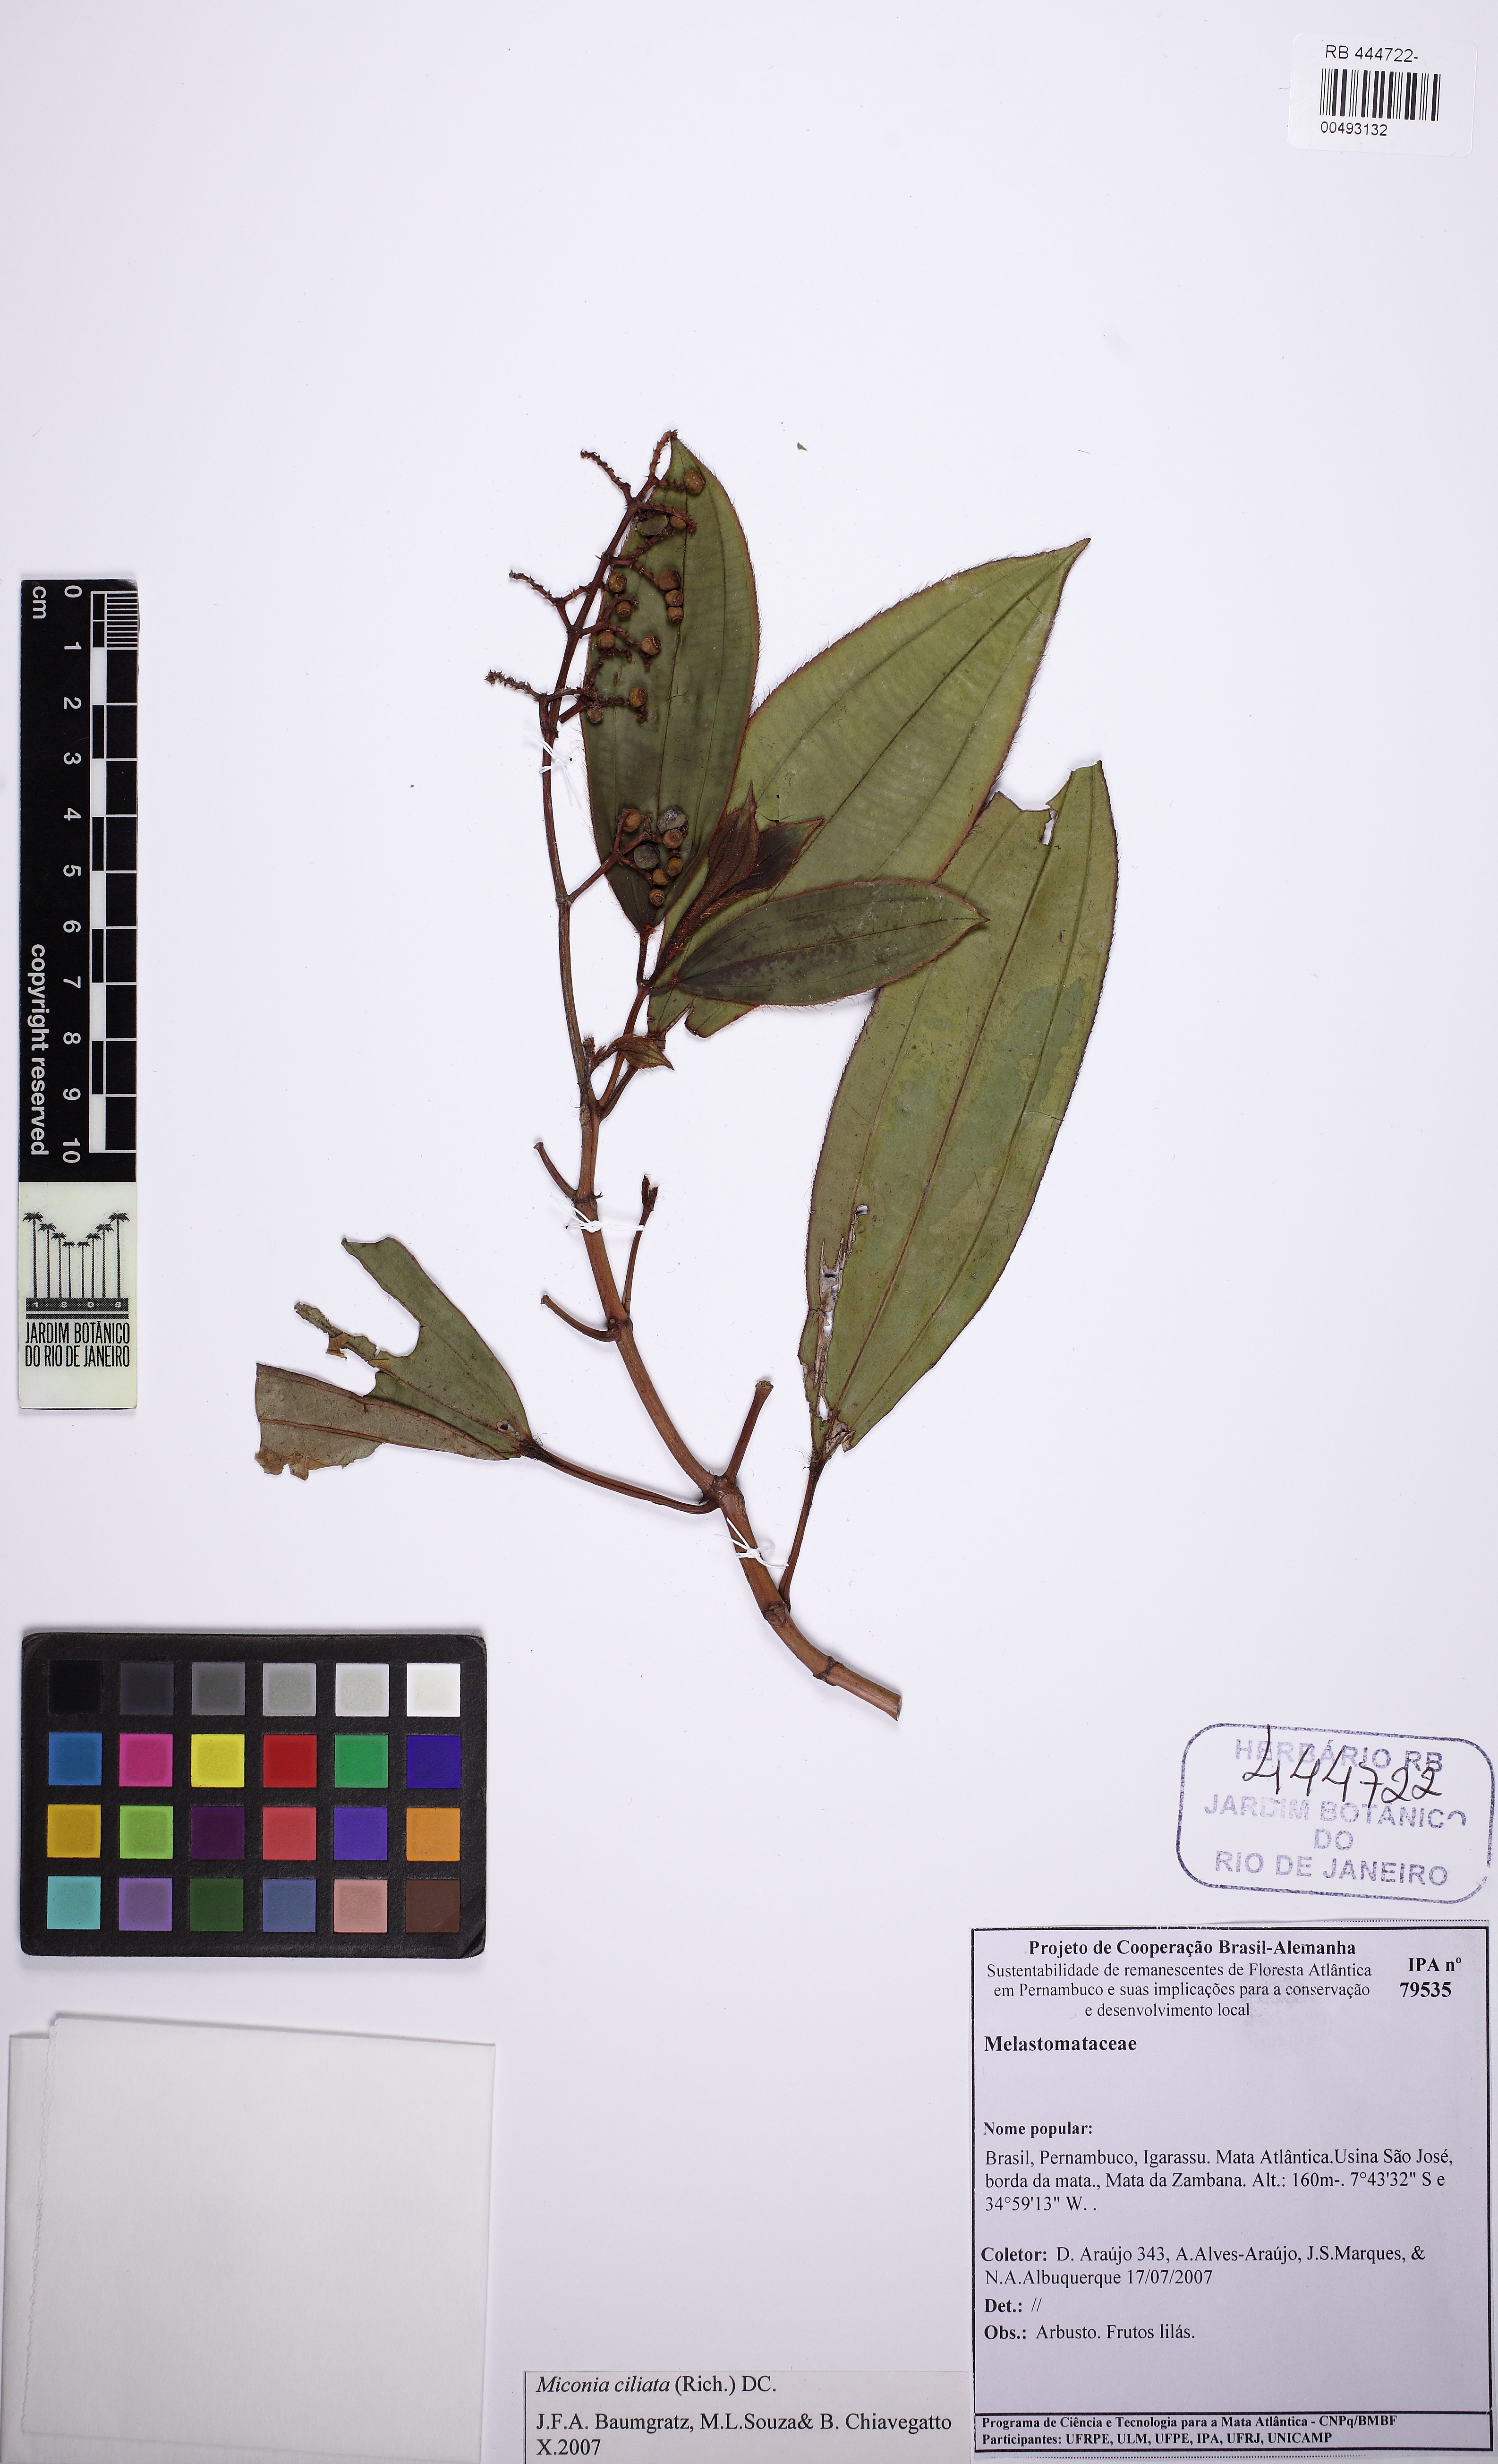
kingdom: Plantae
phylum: Tracheophyta
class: Magnoliopsida
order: Myrtales
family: Melastomataceae
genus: Miconia
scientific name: Miconia ciliata
